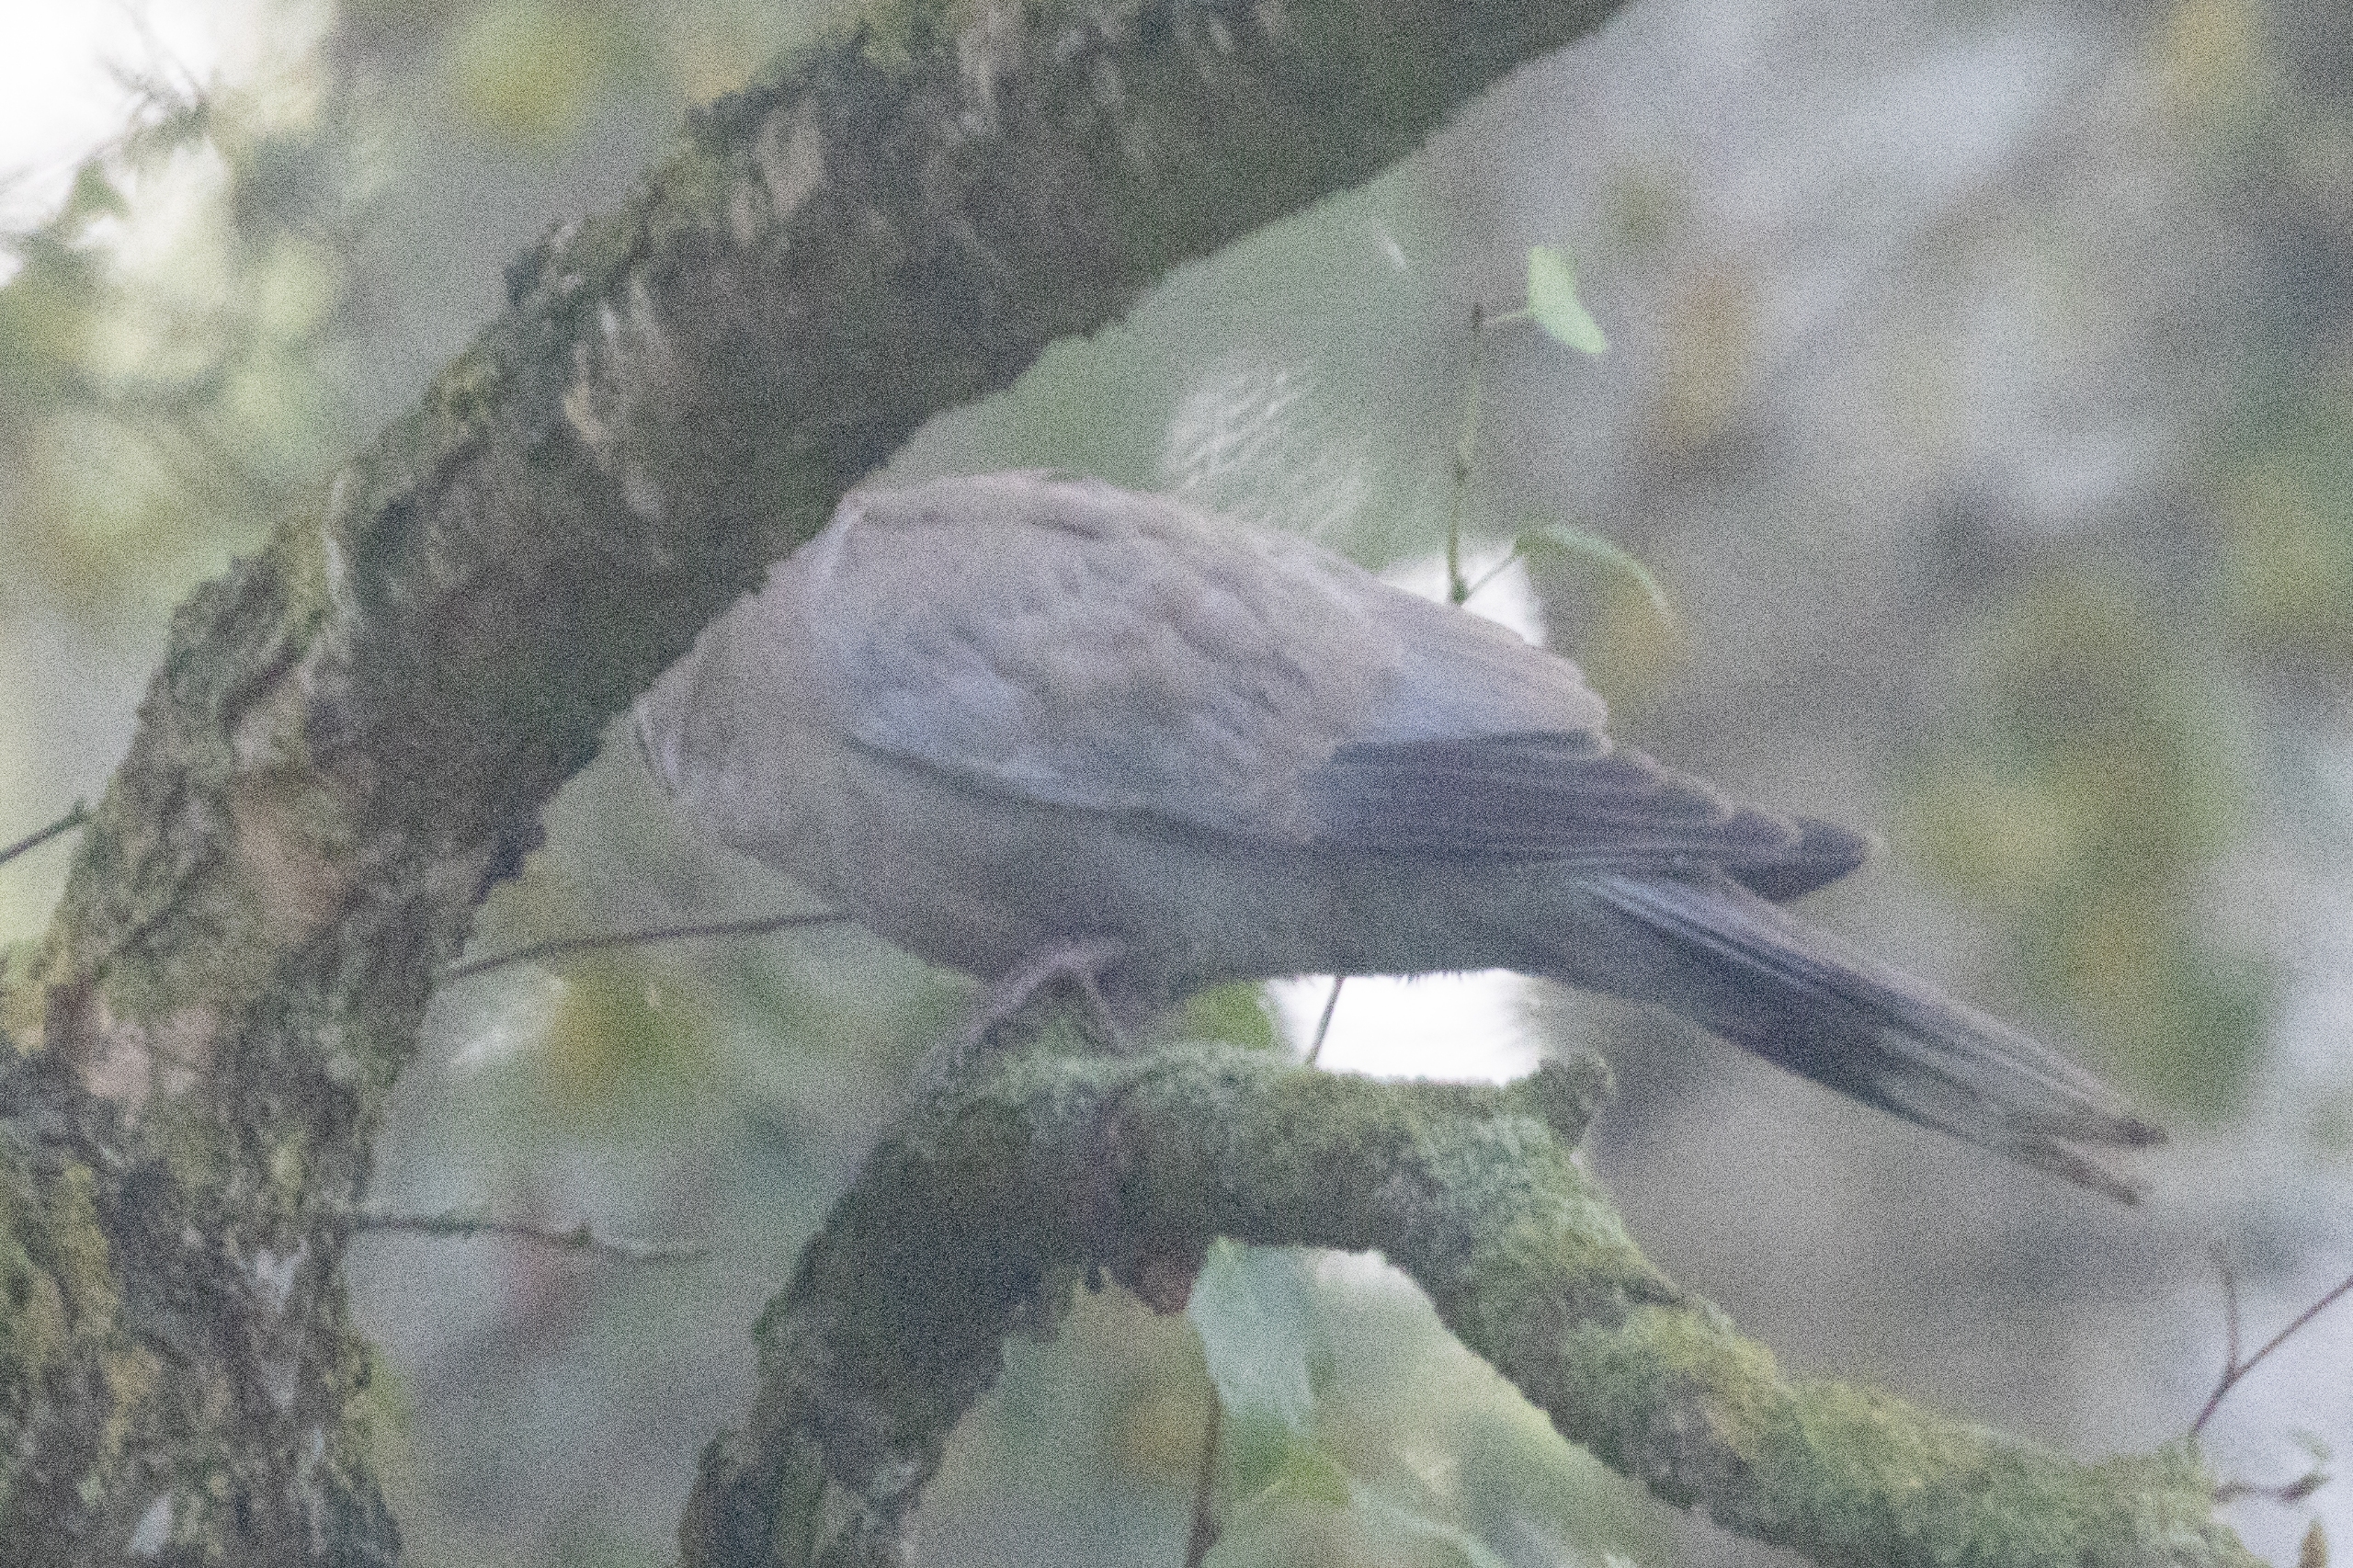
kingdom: Animalia
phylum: Chordata
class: Aves
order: Columbiformes
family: Columbidae
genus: Streptopelia
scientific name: Streptopelia decaocto
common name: Tyrkerdue
